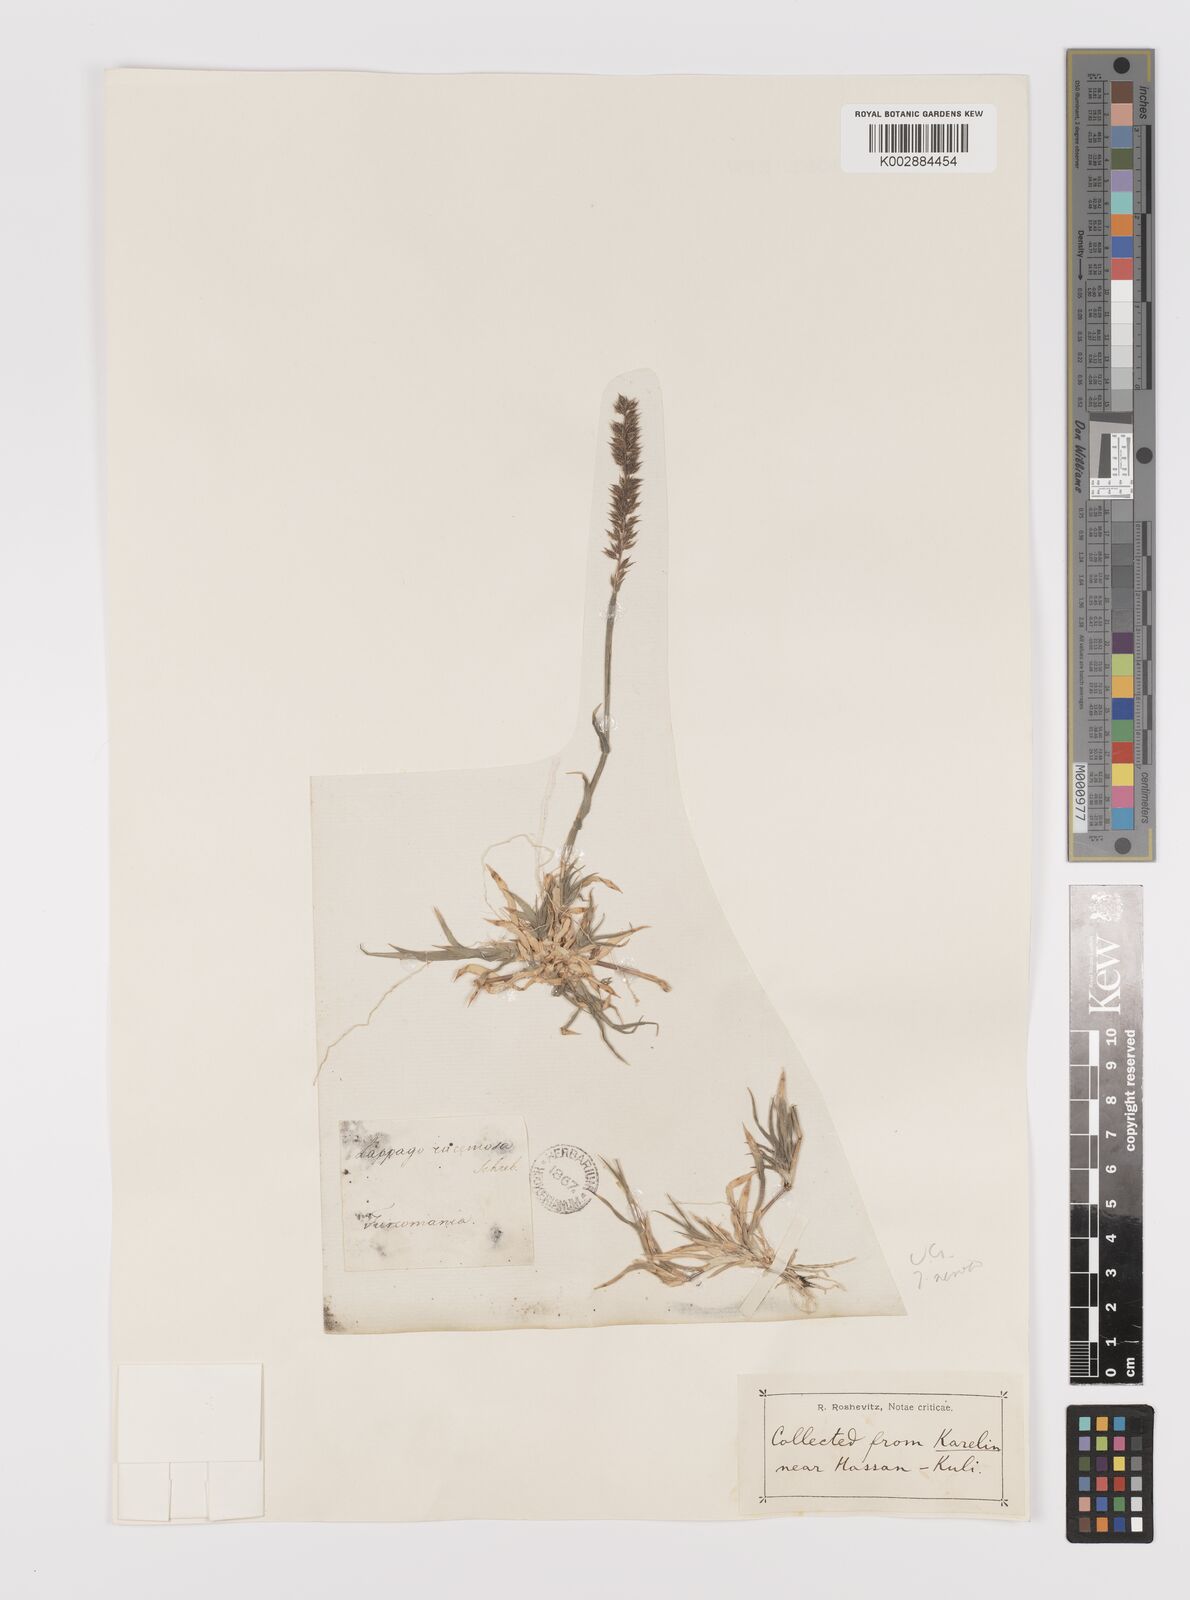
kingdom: Plantae
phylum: Tracheophyta
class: Liliopsida
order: Poales
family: Poaceae
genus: Tragus
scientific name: Tragus racemosus
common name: European bur-grass
